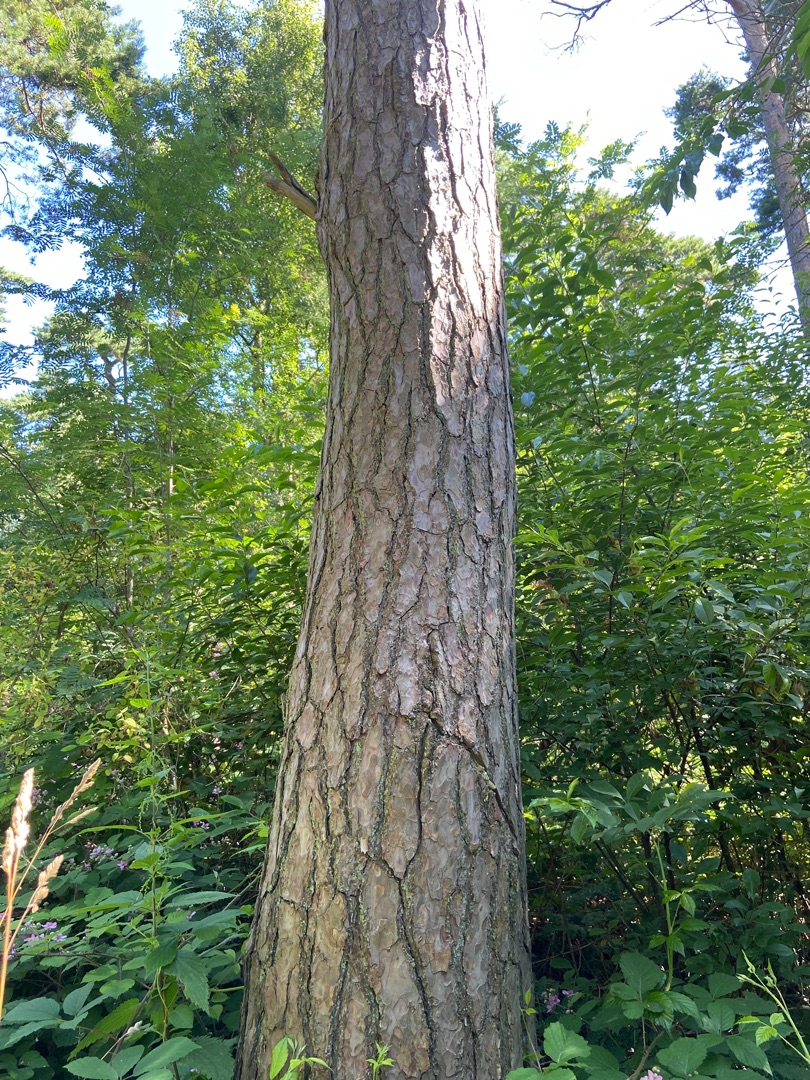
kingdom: Plantae
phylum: Tracheophyta
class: Pinopsida
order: Pinales
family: Pinaceae
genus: Pinus
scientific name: Pinus sylvestris
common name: Skov-fyr
